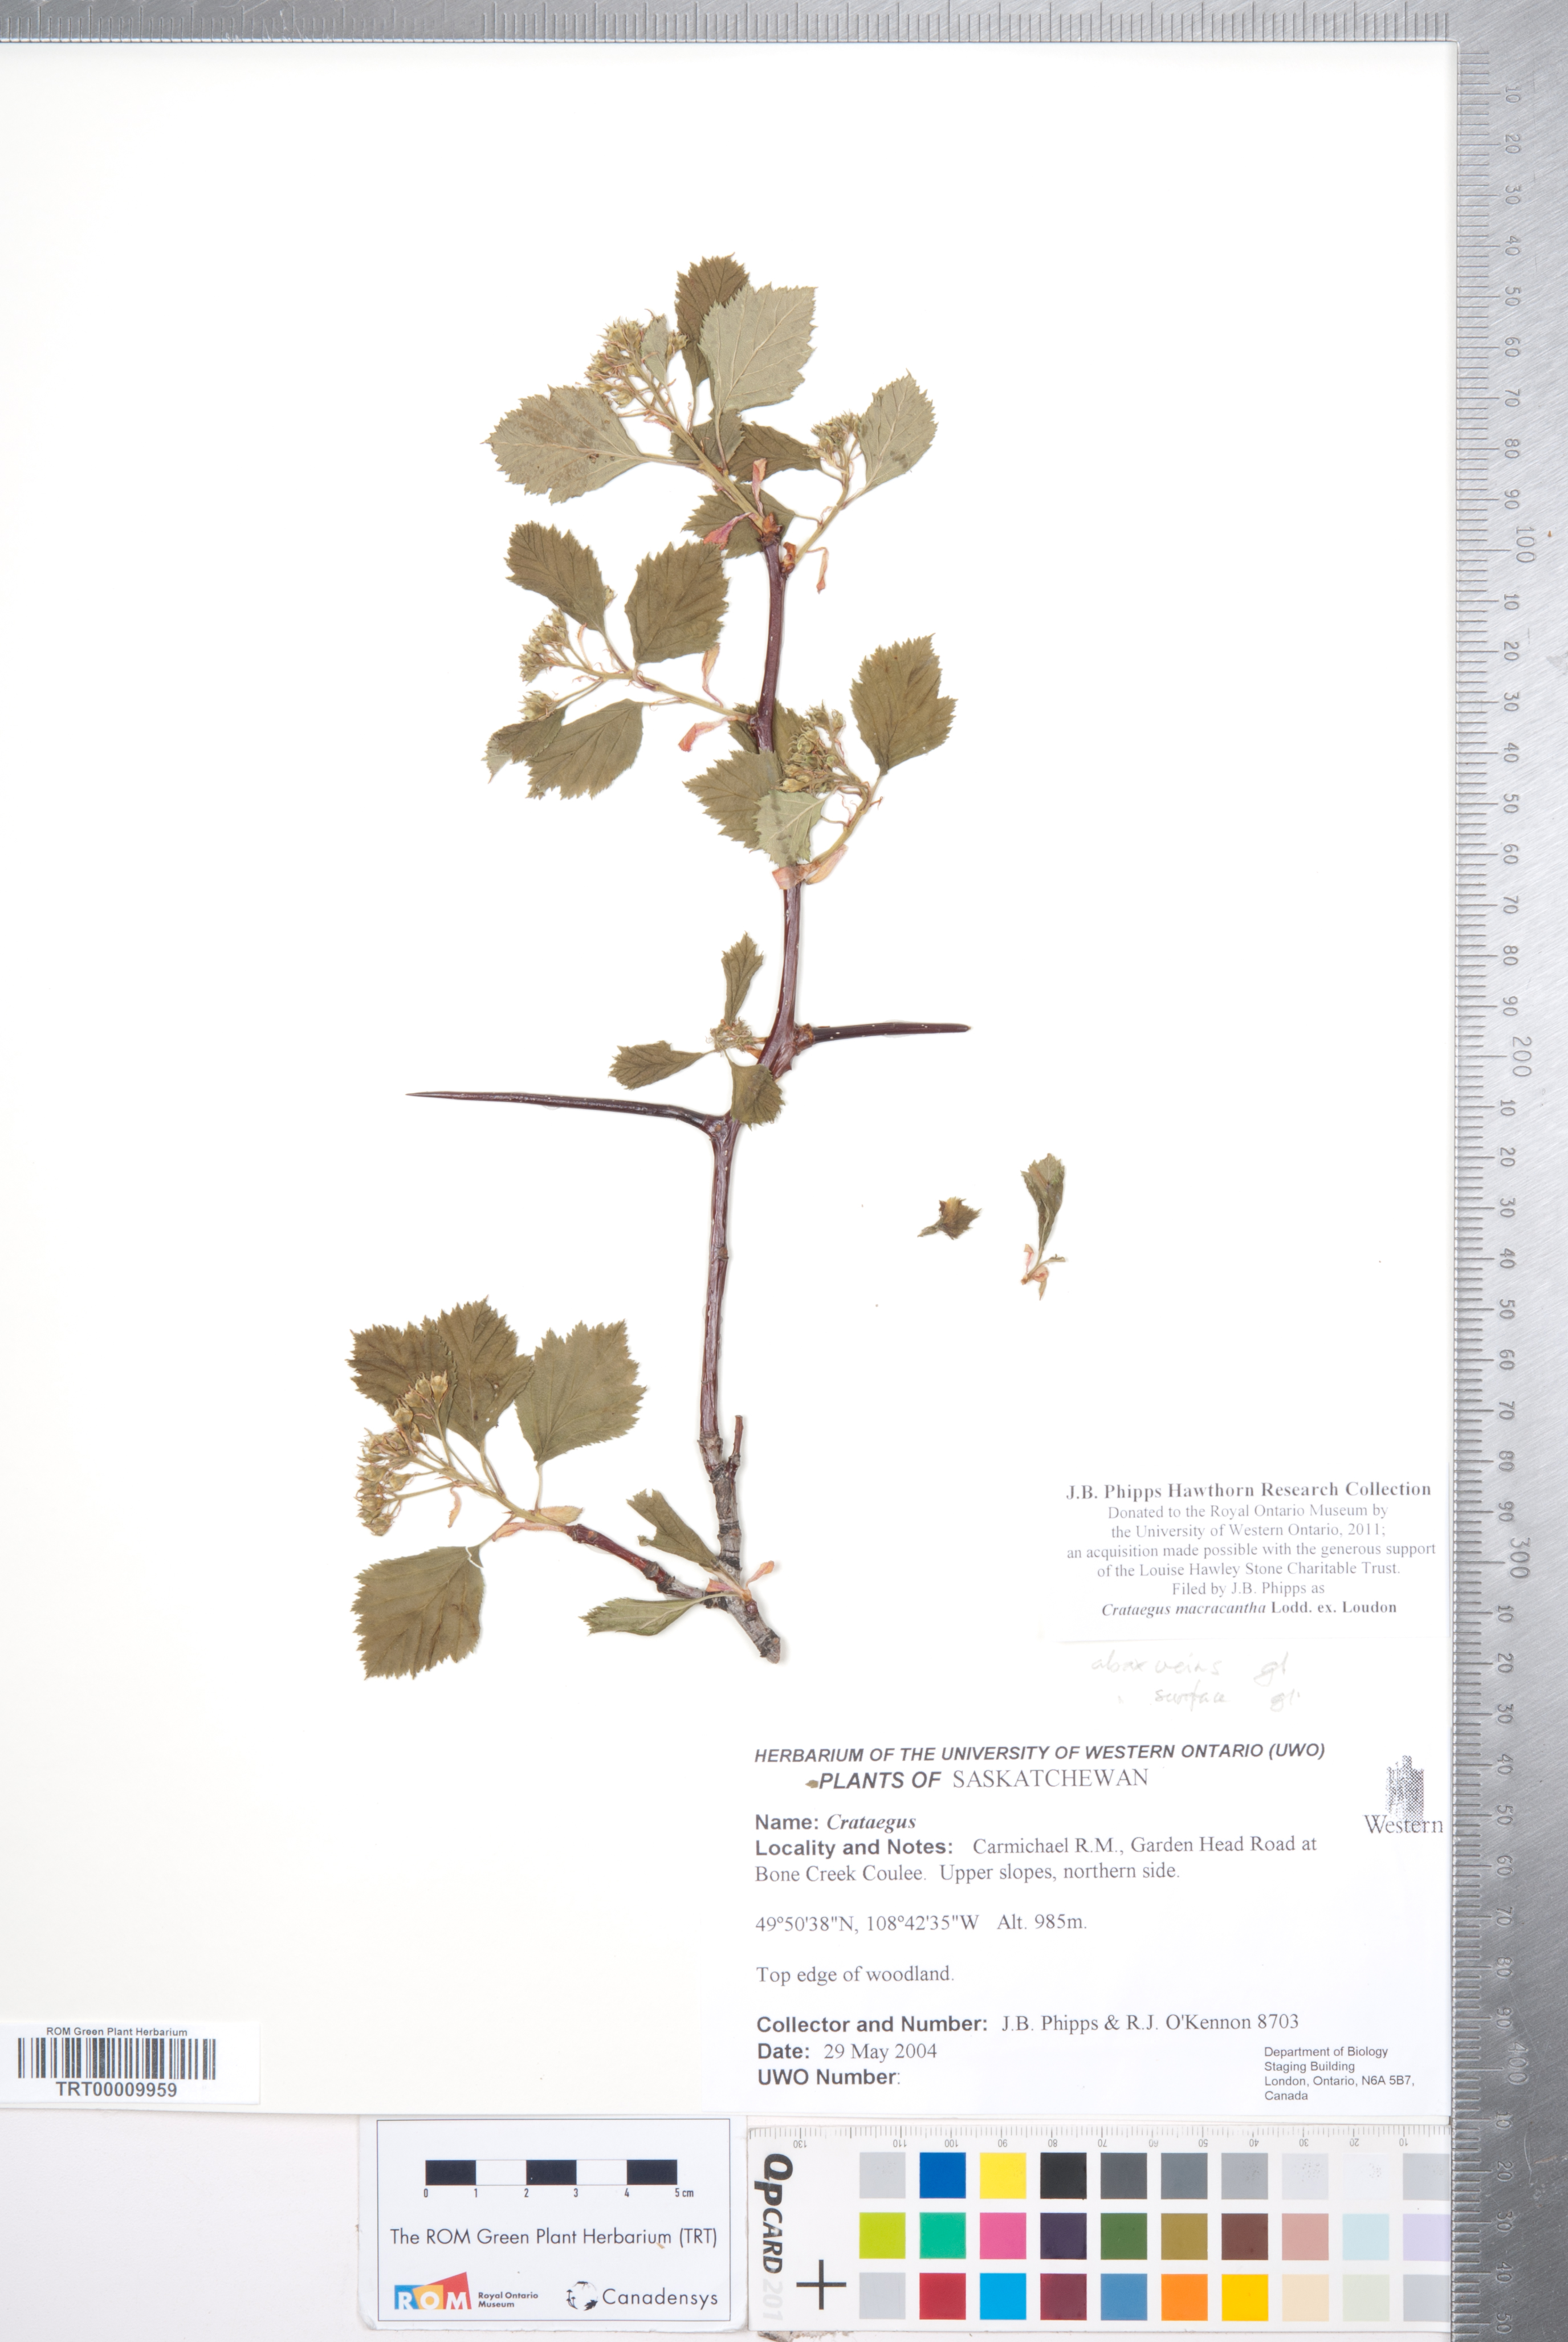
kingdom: Plantae
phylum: Tracheophyta
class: Magnoliopsida
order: Rosales
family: Rosaceae
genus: Crataegus
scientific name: Crataegus macracantha
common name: Large-thorn hawthorn
